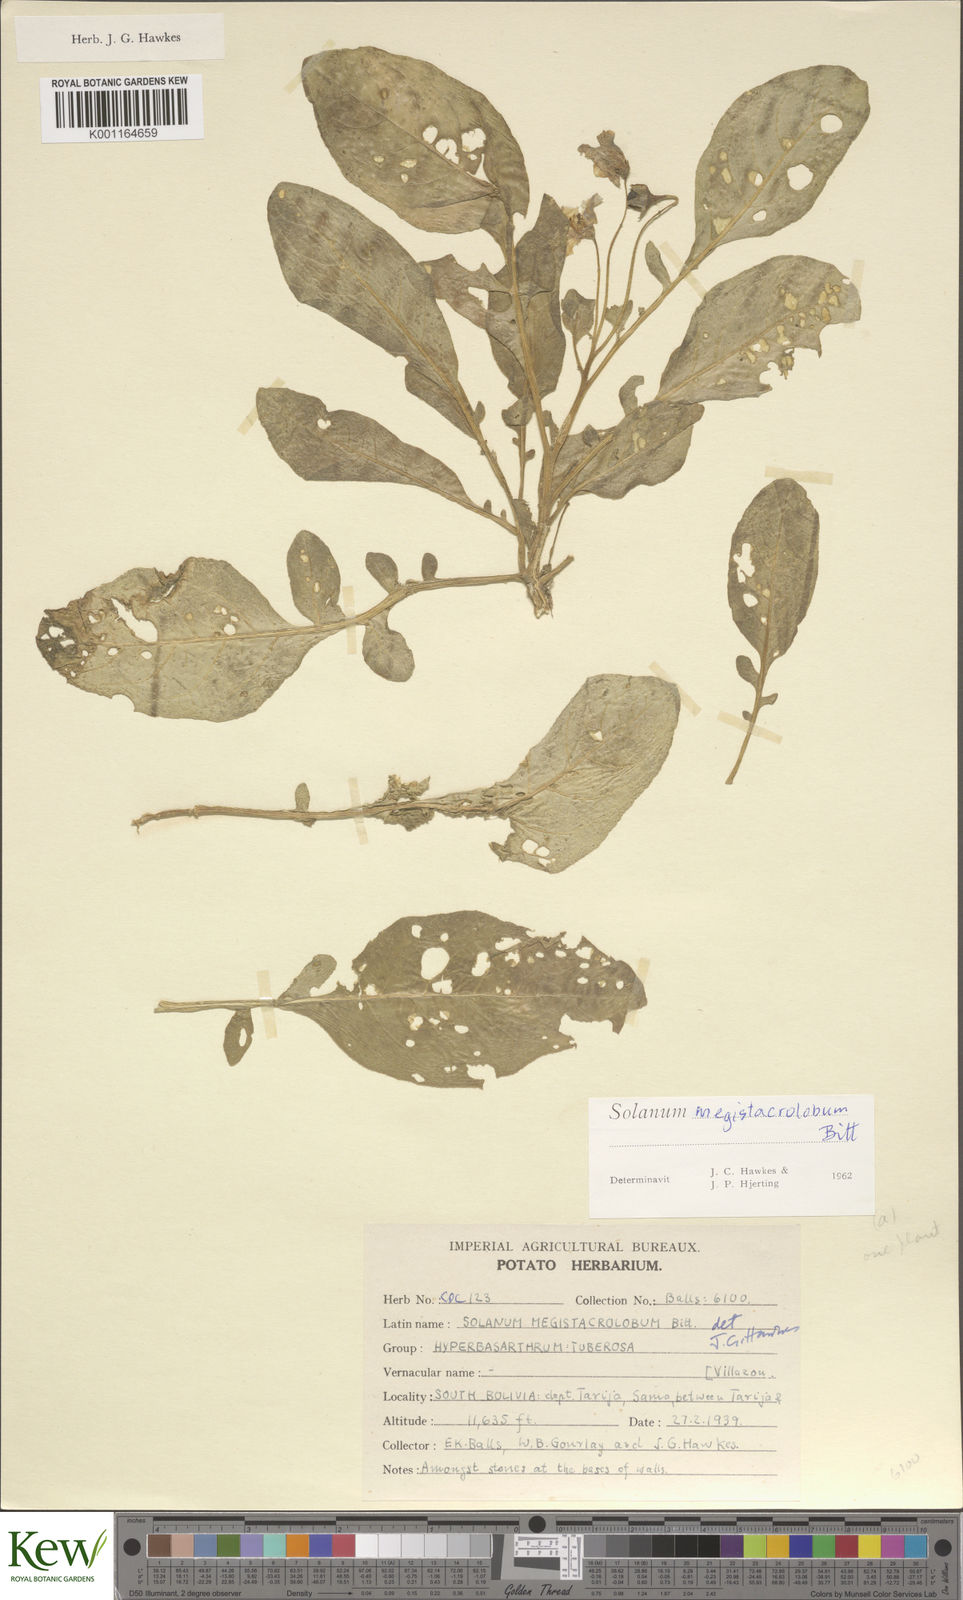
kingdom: Plantae
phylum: Tracheophyta
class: Magnoliopsida
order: Solanales
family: Solanaceae
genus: Solanum
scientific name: Solanum boliviense
